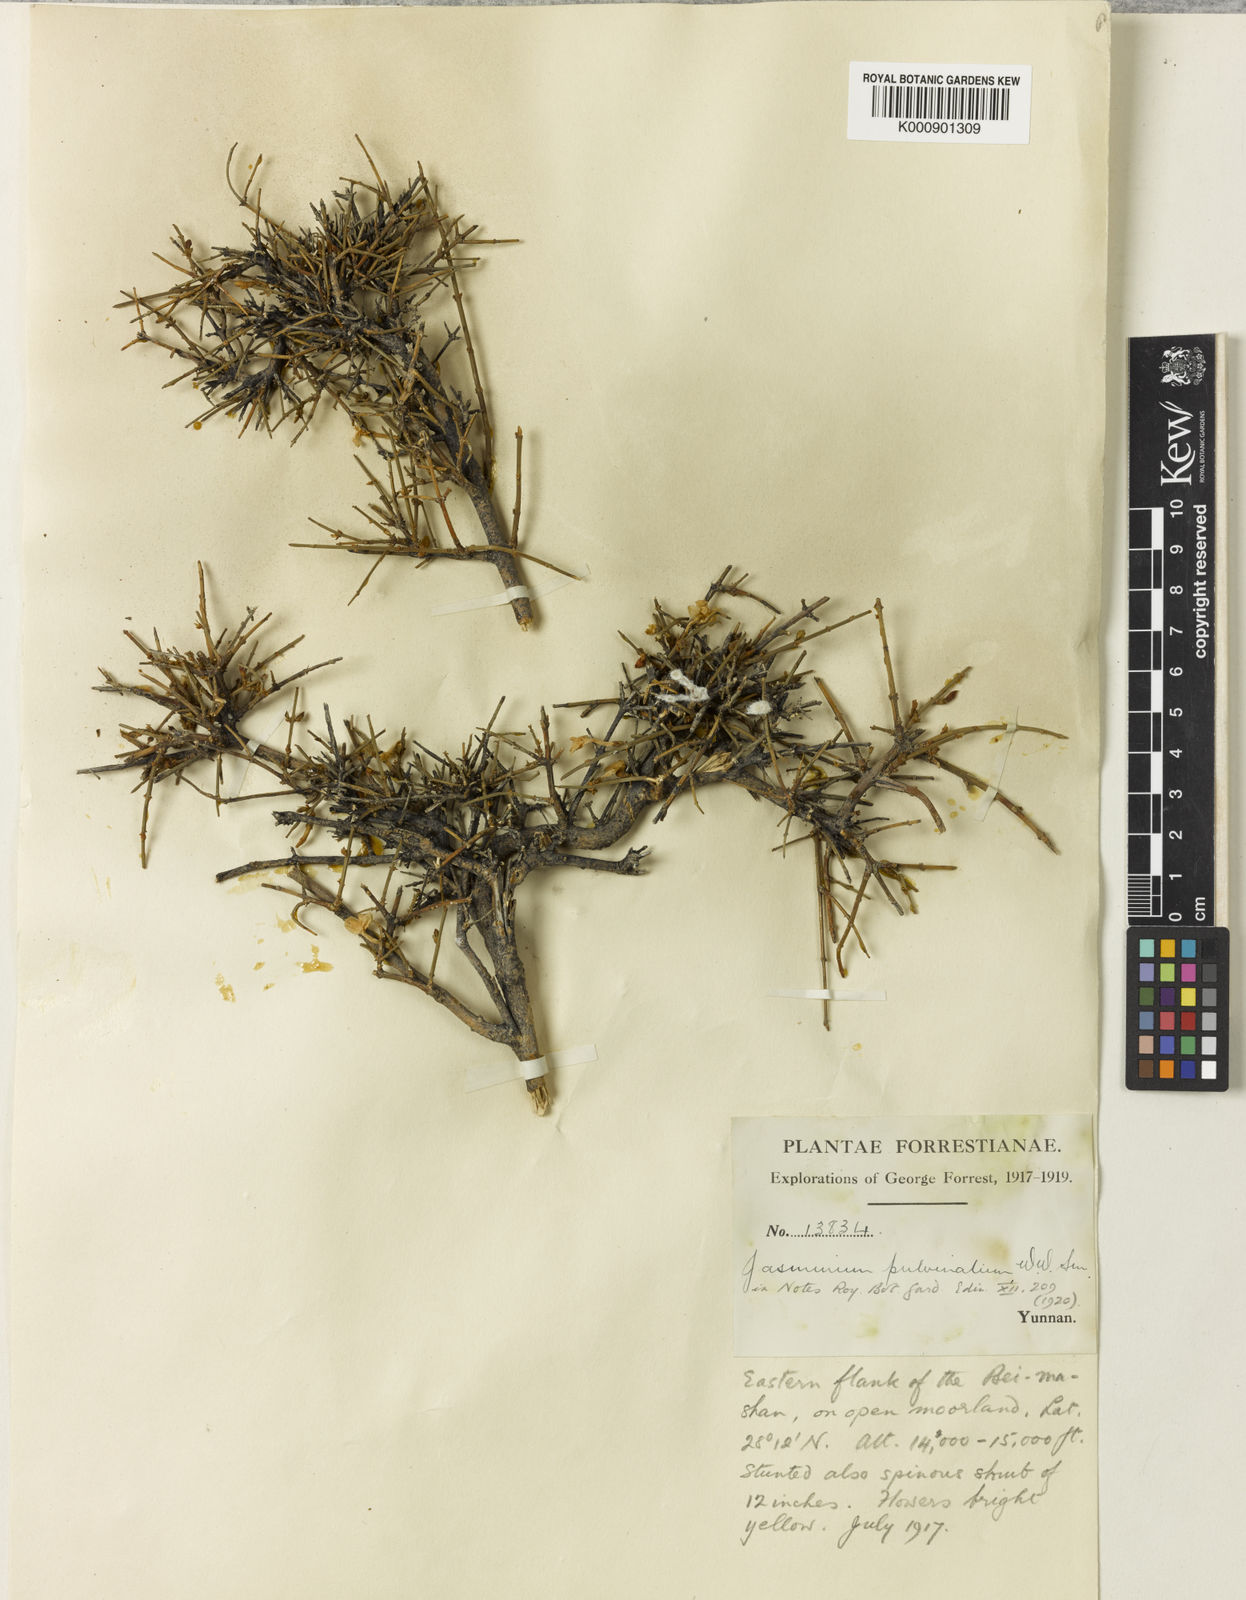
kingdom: Plantae
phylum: Tracheophyta
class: Magnoliopsida
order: Lamiales
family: Oleaceae
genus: Jasminum
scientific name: Jasminum nudiflorum
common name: Winter jasmine
